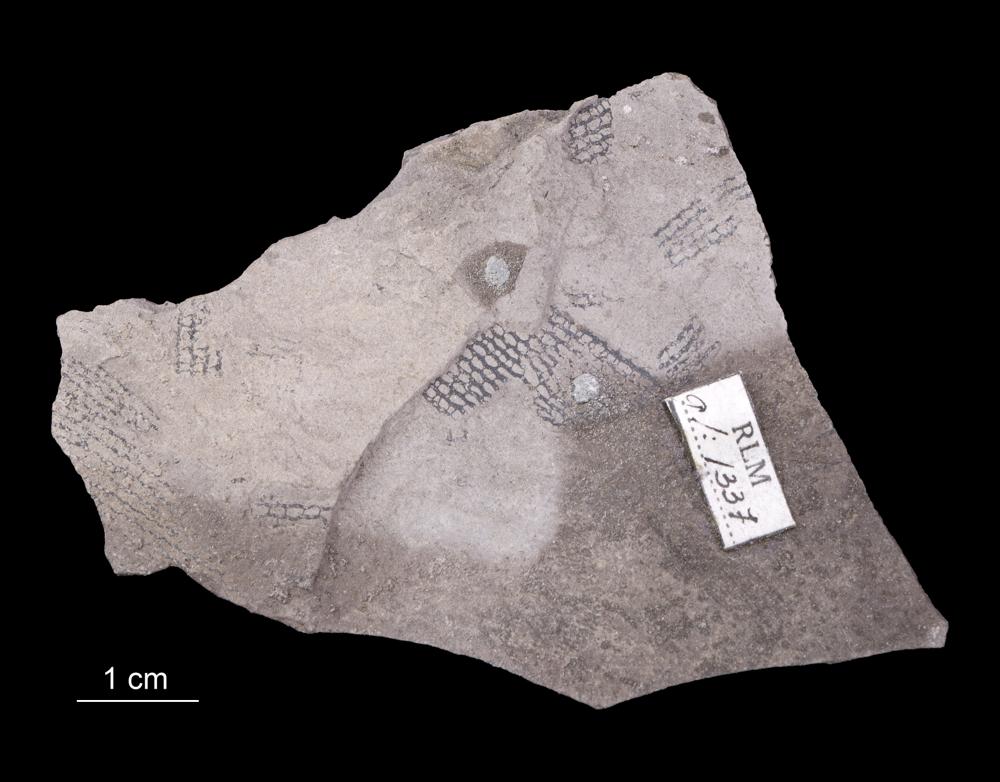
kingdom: Animalia
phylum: Hemichordata
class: Pterobranchia
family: Anisograptidae
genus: Rhabdinopora
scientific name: Rhabdinopora Gorgonia flabelliformis
